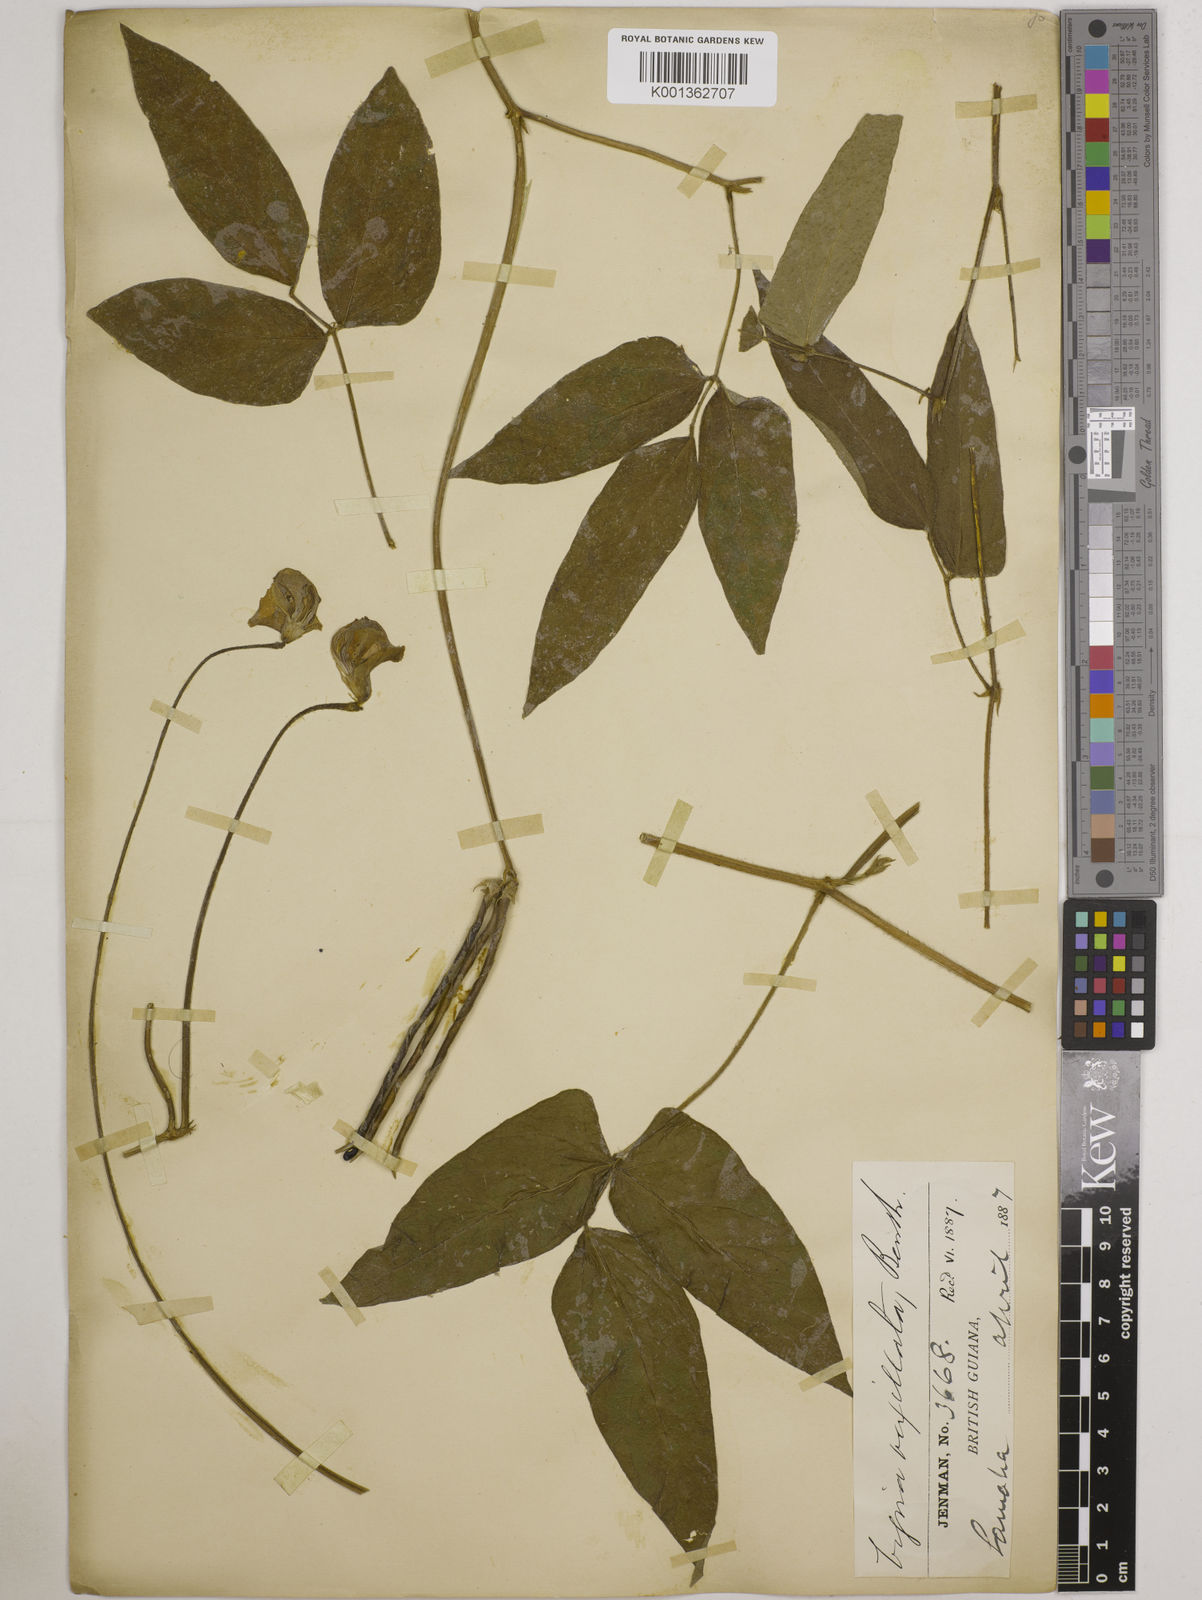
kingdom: Plantae
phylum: Tracheophyta
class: Magnoliopsida
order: Fabales
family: Fabaceae
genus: Vigna
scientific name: Vigna vexillata
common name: Zombi pea
